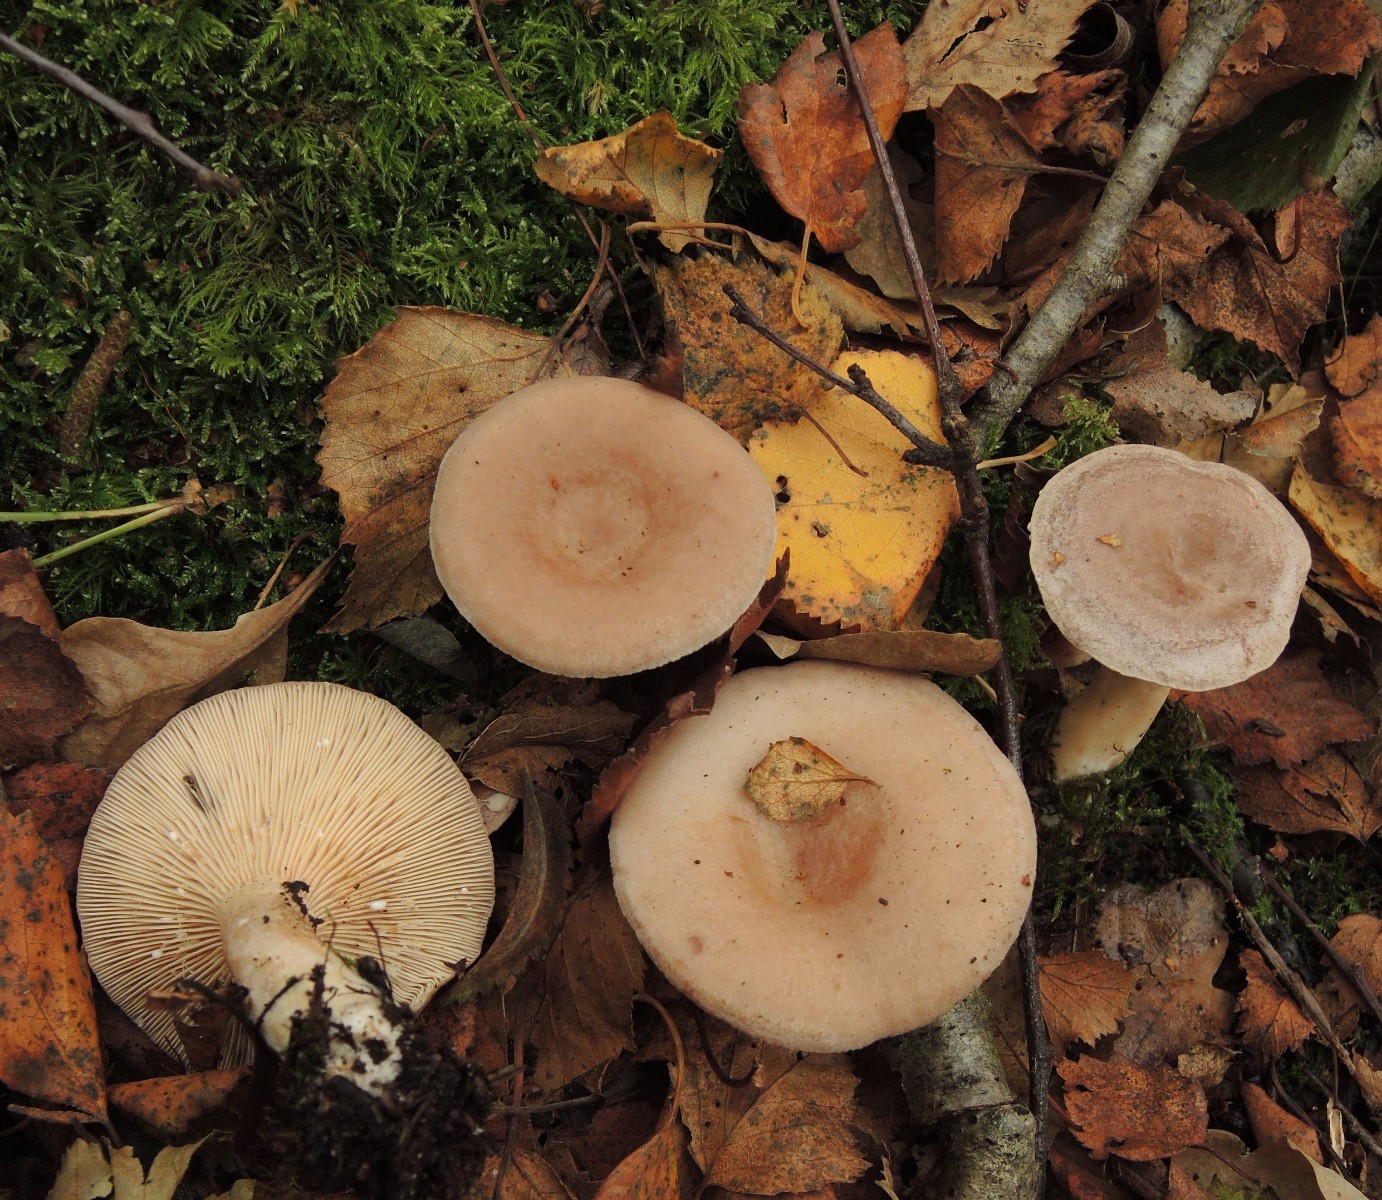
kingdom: Fungi
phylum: Basidiomycota
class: Agaricomycetes
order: Russulales
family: Russulaceae
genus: Lactarius
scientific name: Lactarius vietus
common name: violetgrå mælkehat
